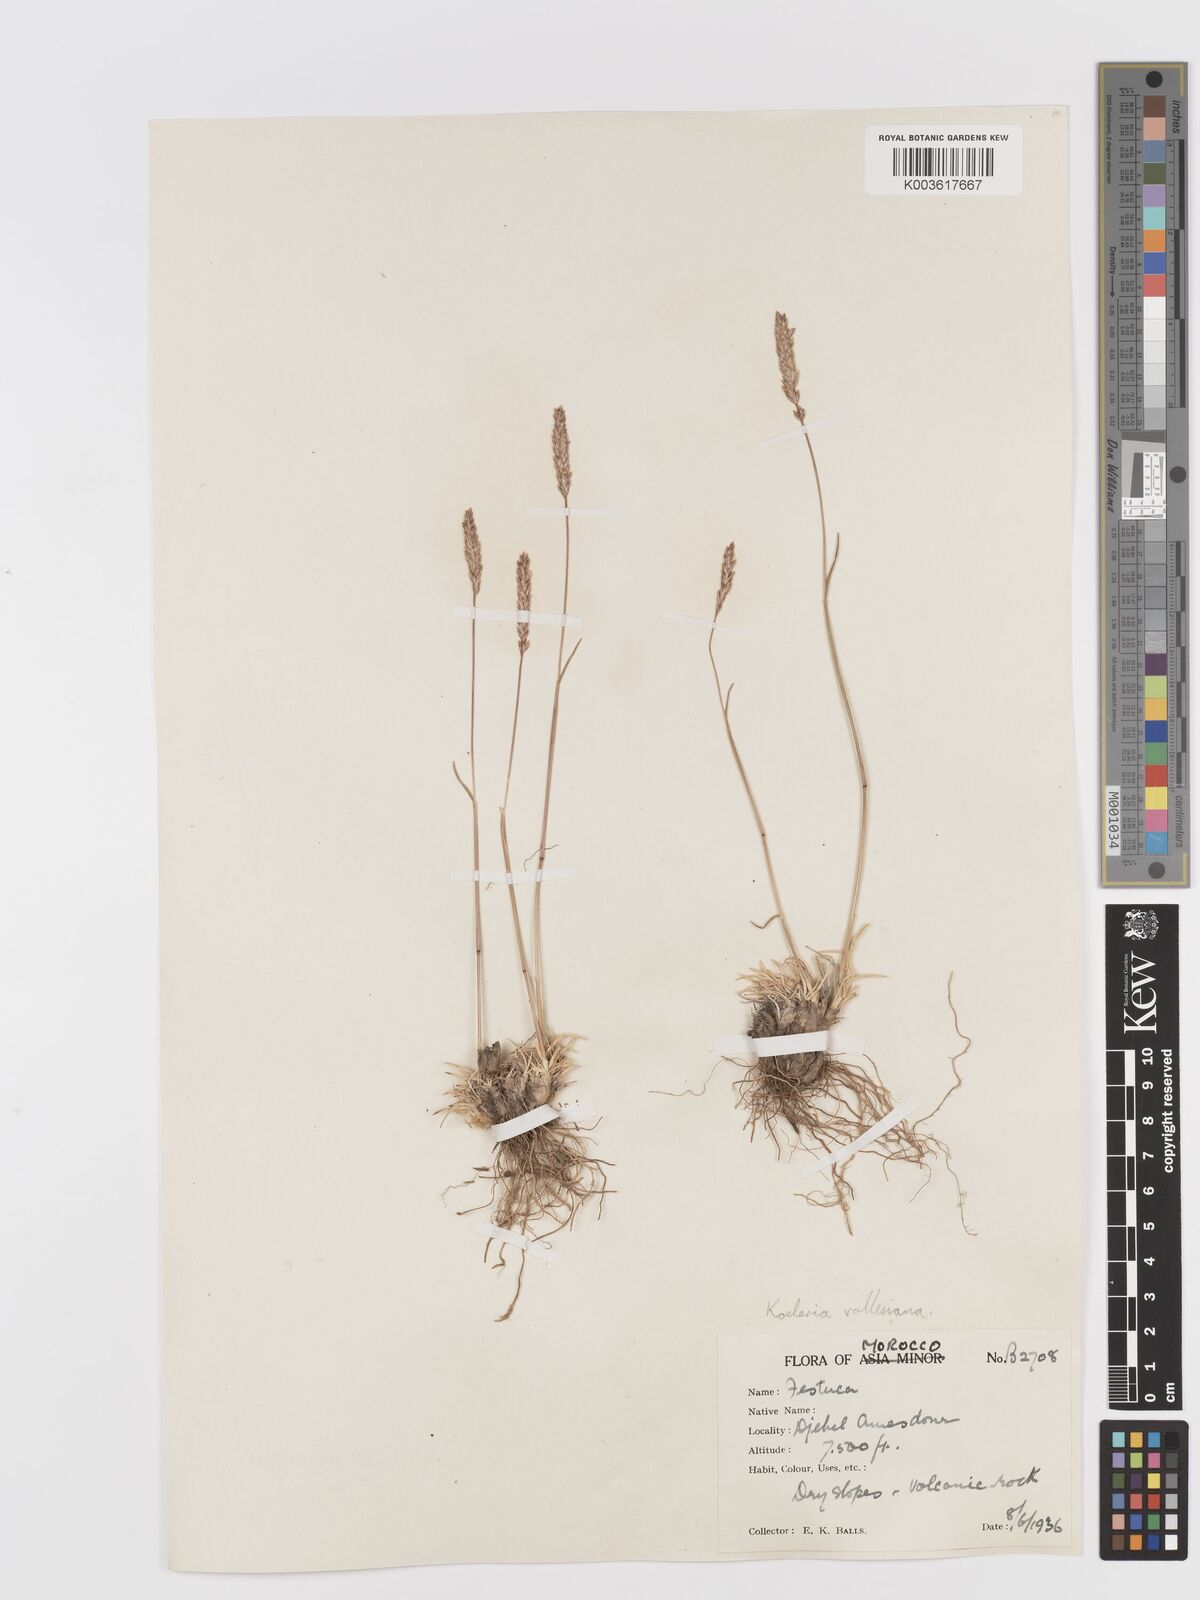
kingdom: Plantae
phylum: Tracheophyta
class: Liliopsida
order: Poales
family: Poaceae
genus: Koeleria
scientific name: Koeleria vallesiana
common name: Somerset hair-grass
